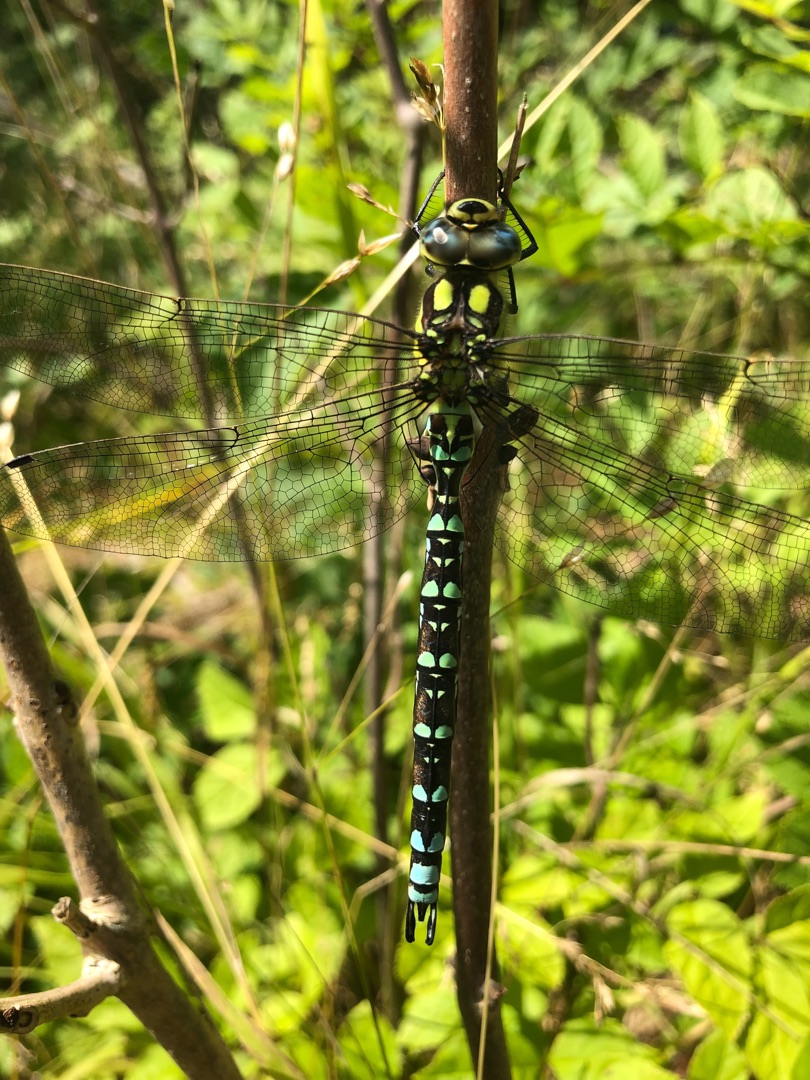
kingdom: Animalia
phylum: Arthropoda
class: Insecta
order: Odonata
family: Aeshnidae
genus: Aeshna
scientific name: Aeshna cyanea
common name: Blå mosaikguldsmed
